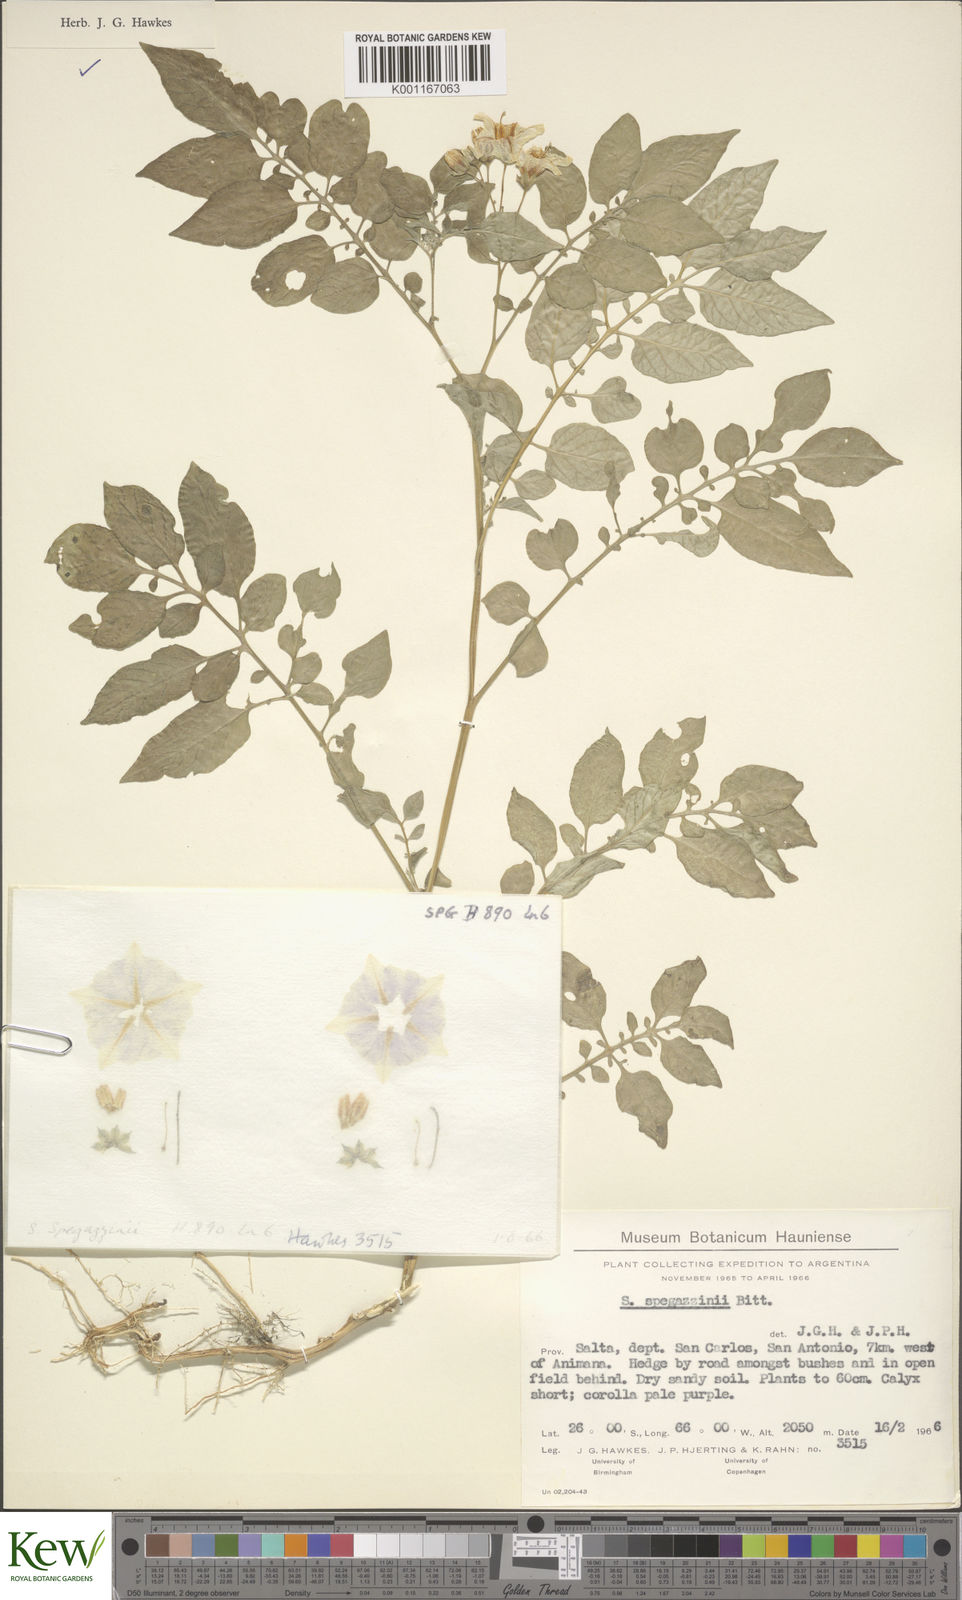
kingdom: Plantae
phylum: Tracheophyta
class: Magnoliopsida
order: Solanales
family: Solanaceae
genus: Solanum
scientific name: Solanum brevicaule
